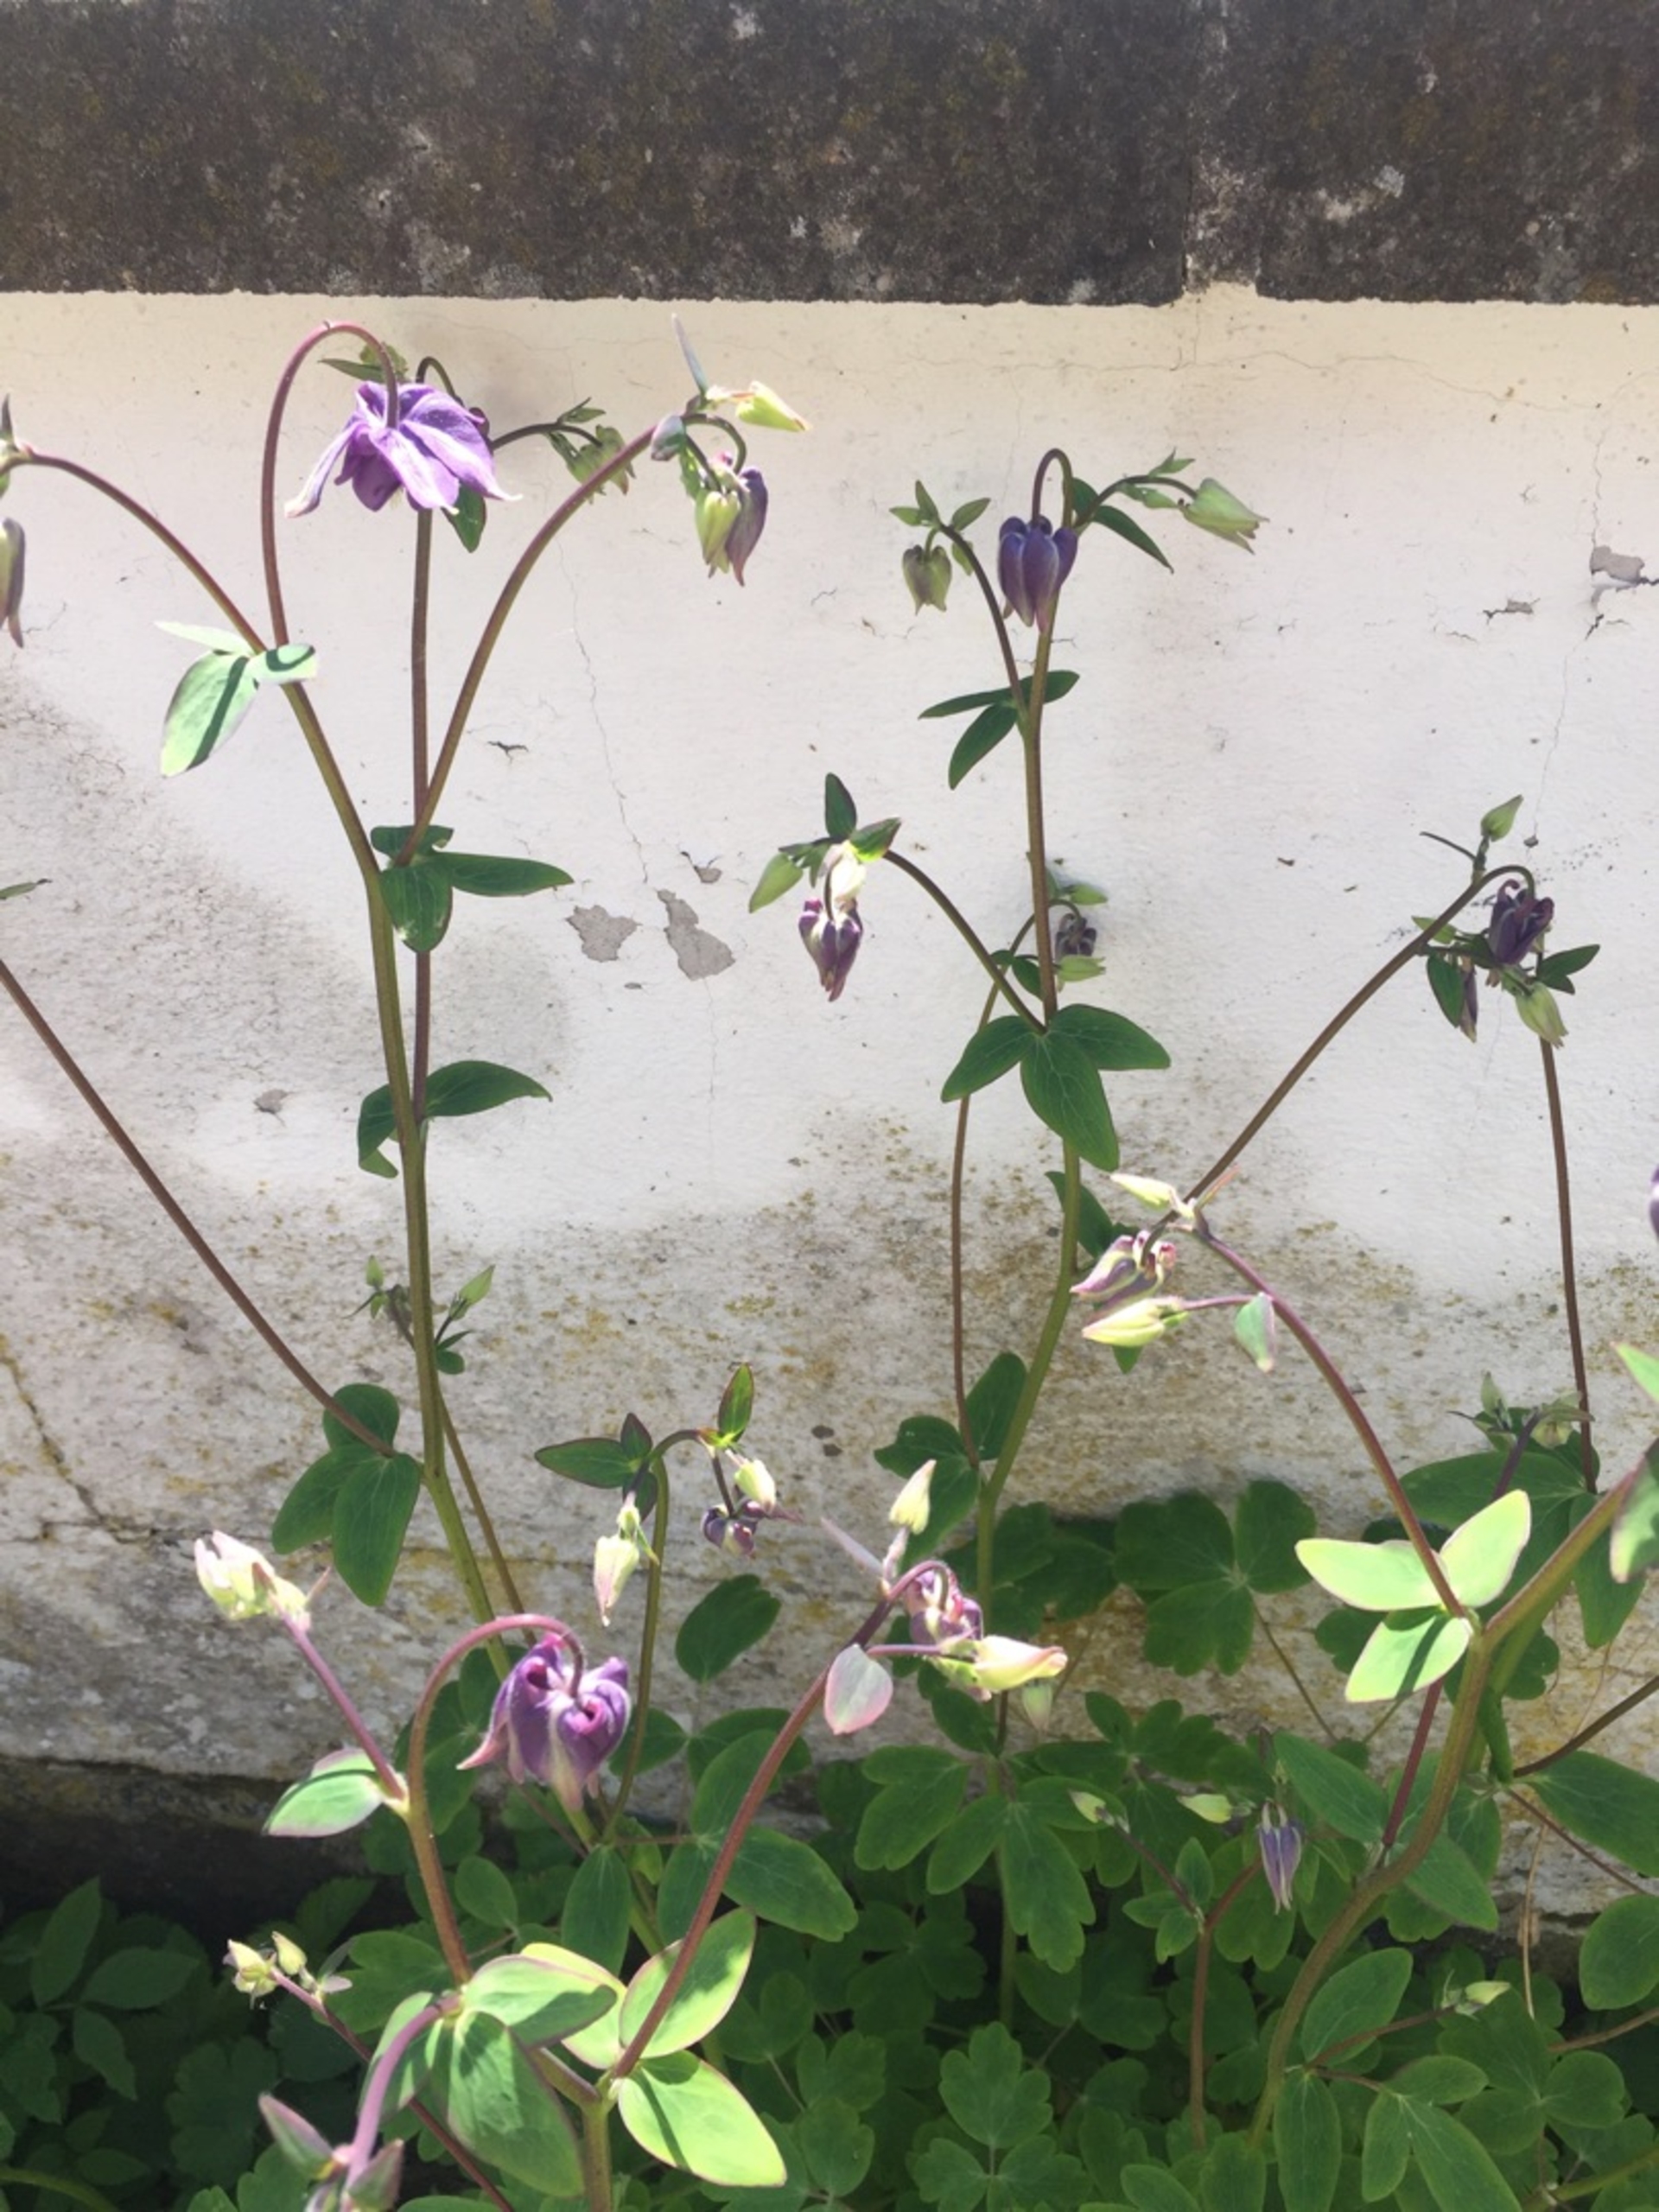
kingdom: Plantae
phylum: Tracheophyta
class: Magnoliopsida
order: Ranunculales
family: Ranunculaceae
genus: Aquilegia
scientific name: Aquilegia vulgaris
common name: Akeleje
